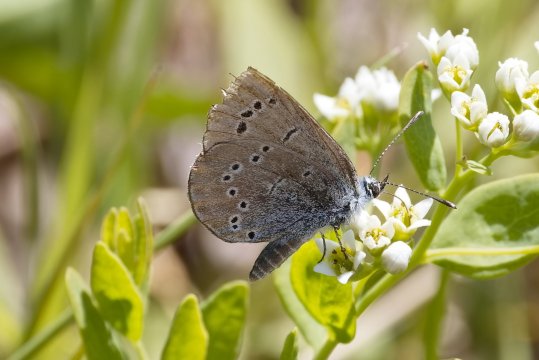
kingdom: Animalia
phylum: Arthropoda
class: Insecta
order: Lepidoptera
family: Lycaenidae
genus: Glaucopsyche
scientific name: Glaucopsyche lygdamus
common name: Silvery Blue
